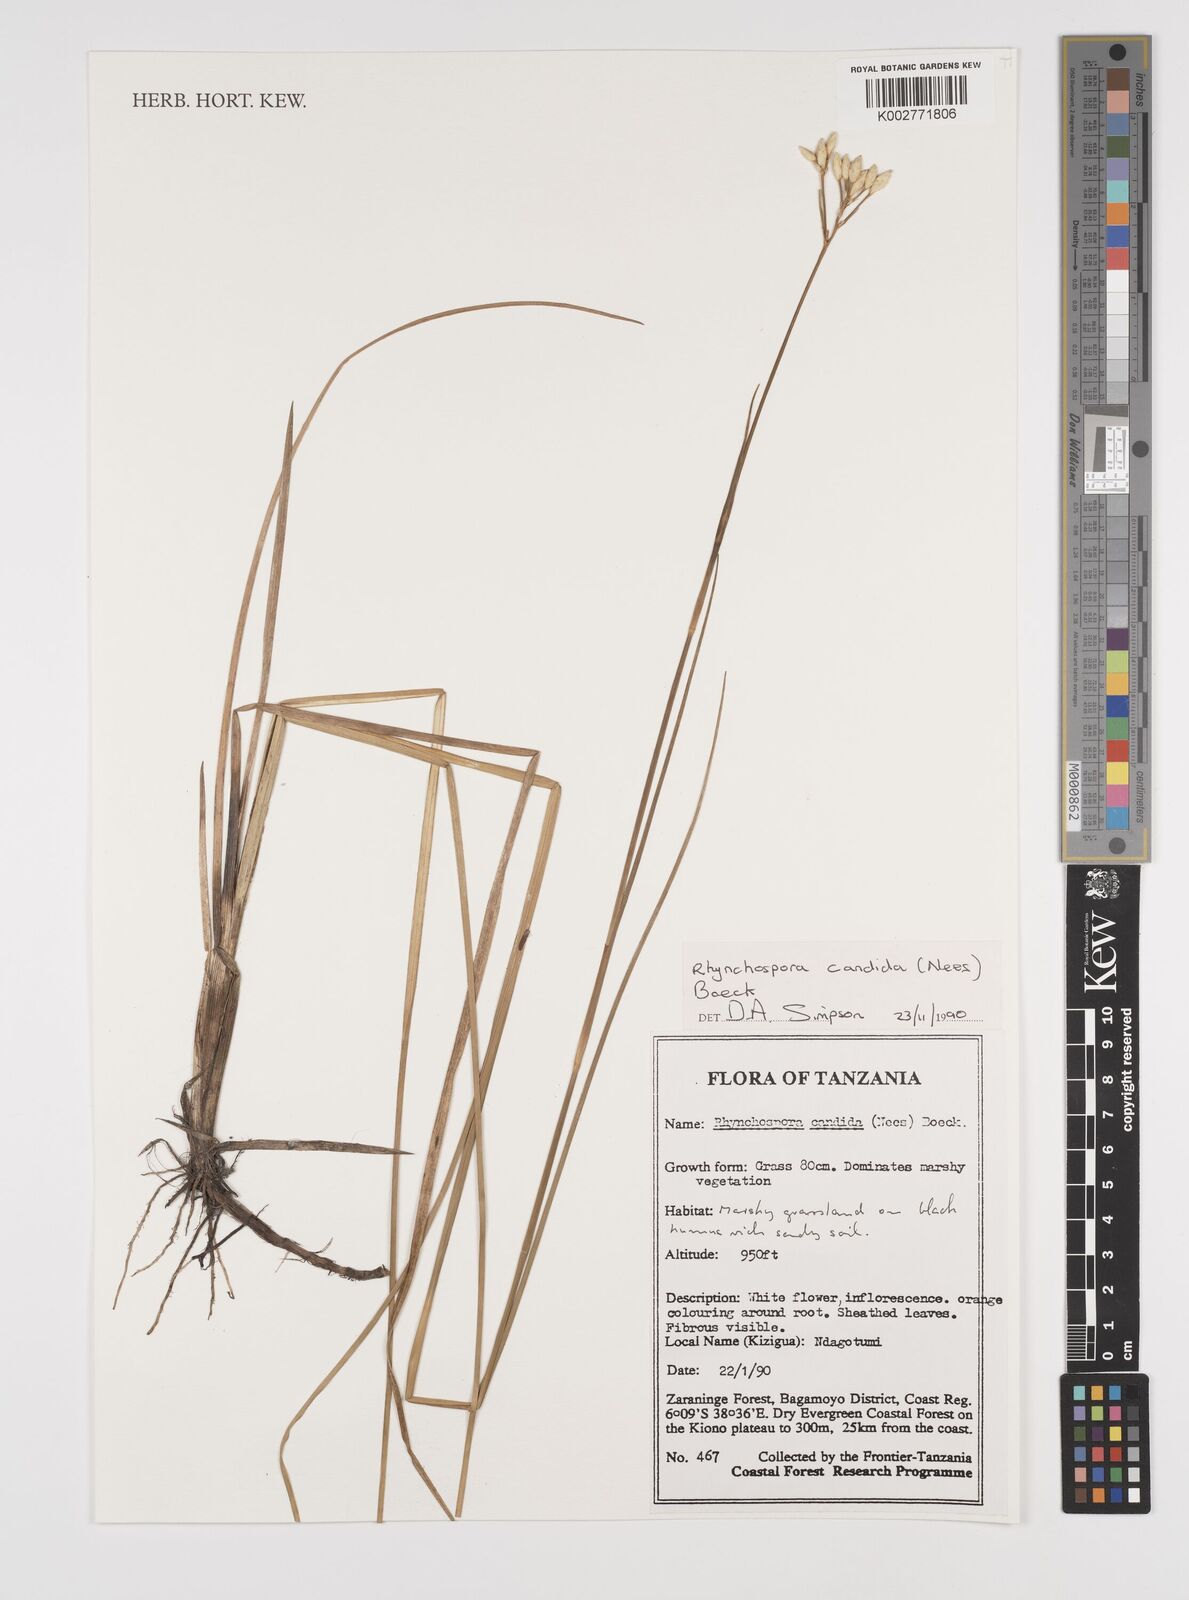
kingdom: Plantae
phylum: Tracheophyta
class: Liliopsida
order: Poales
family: Cyperaceae
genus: Rhynchospora
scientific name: Rhynchospora candida
